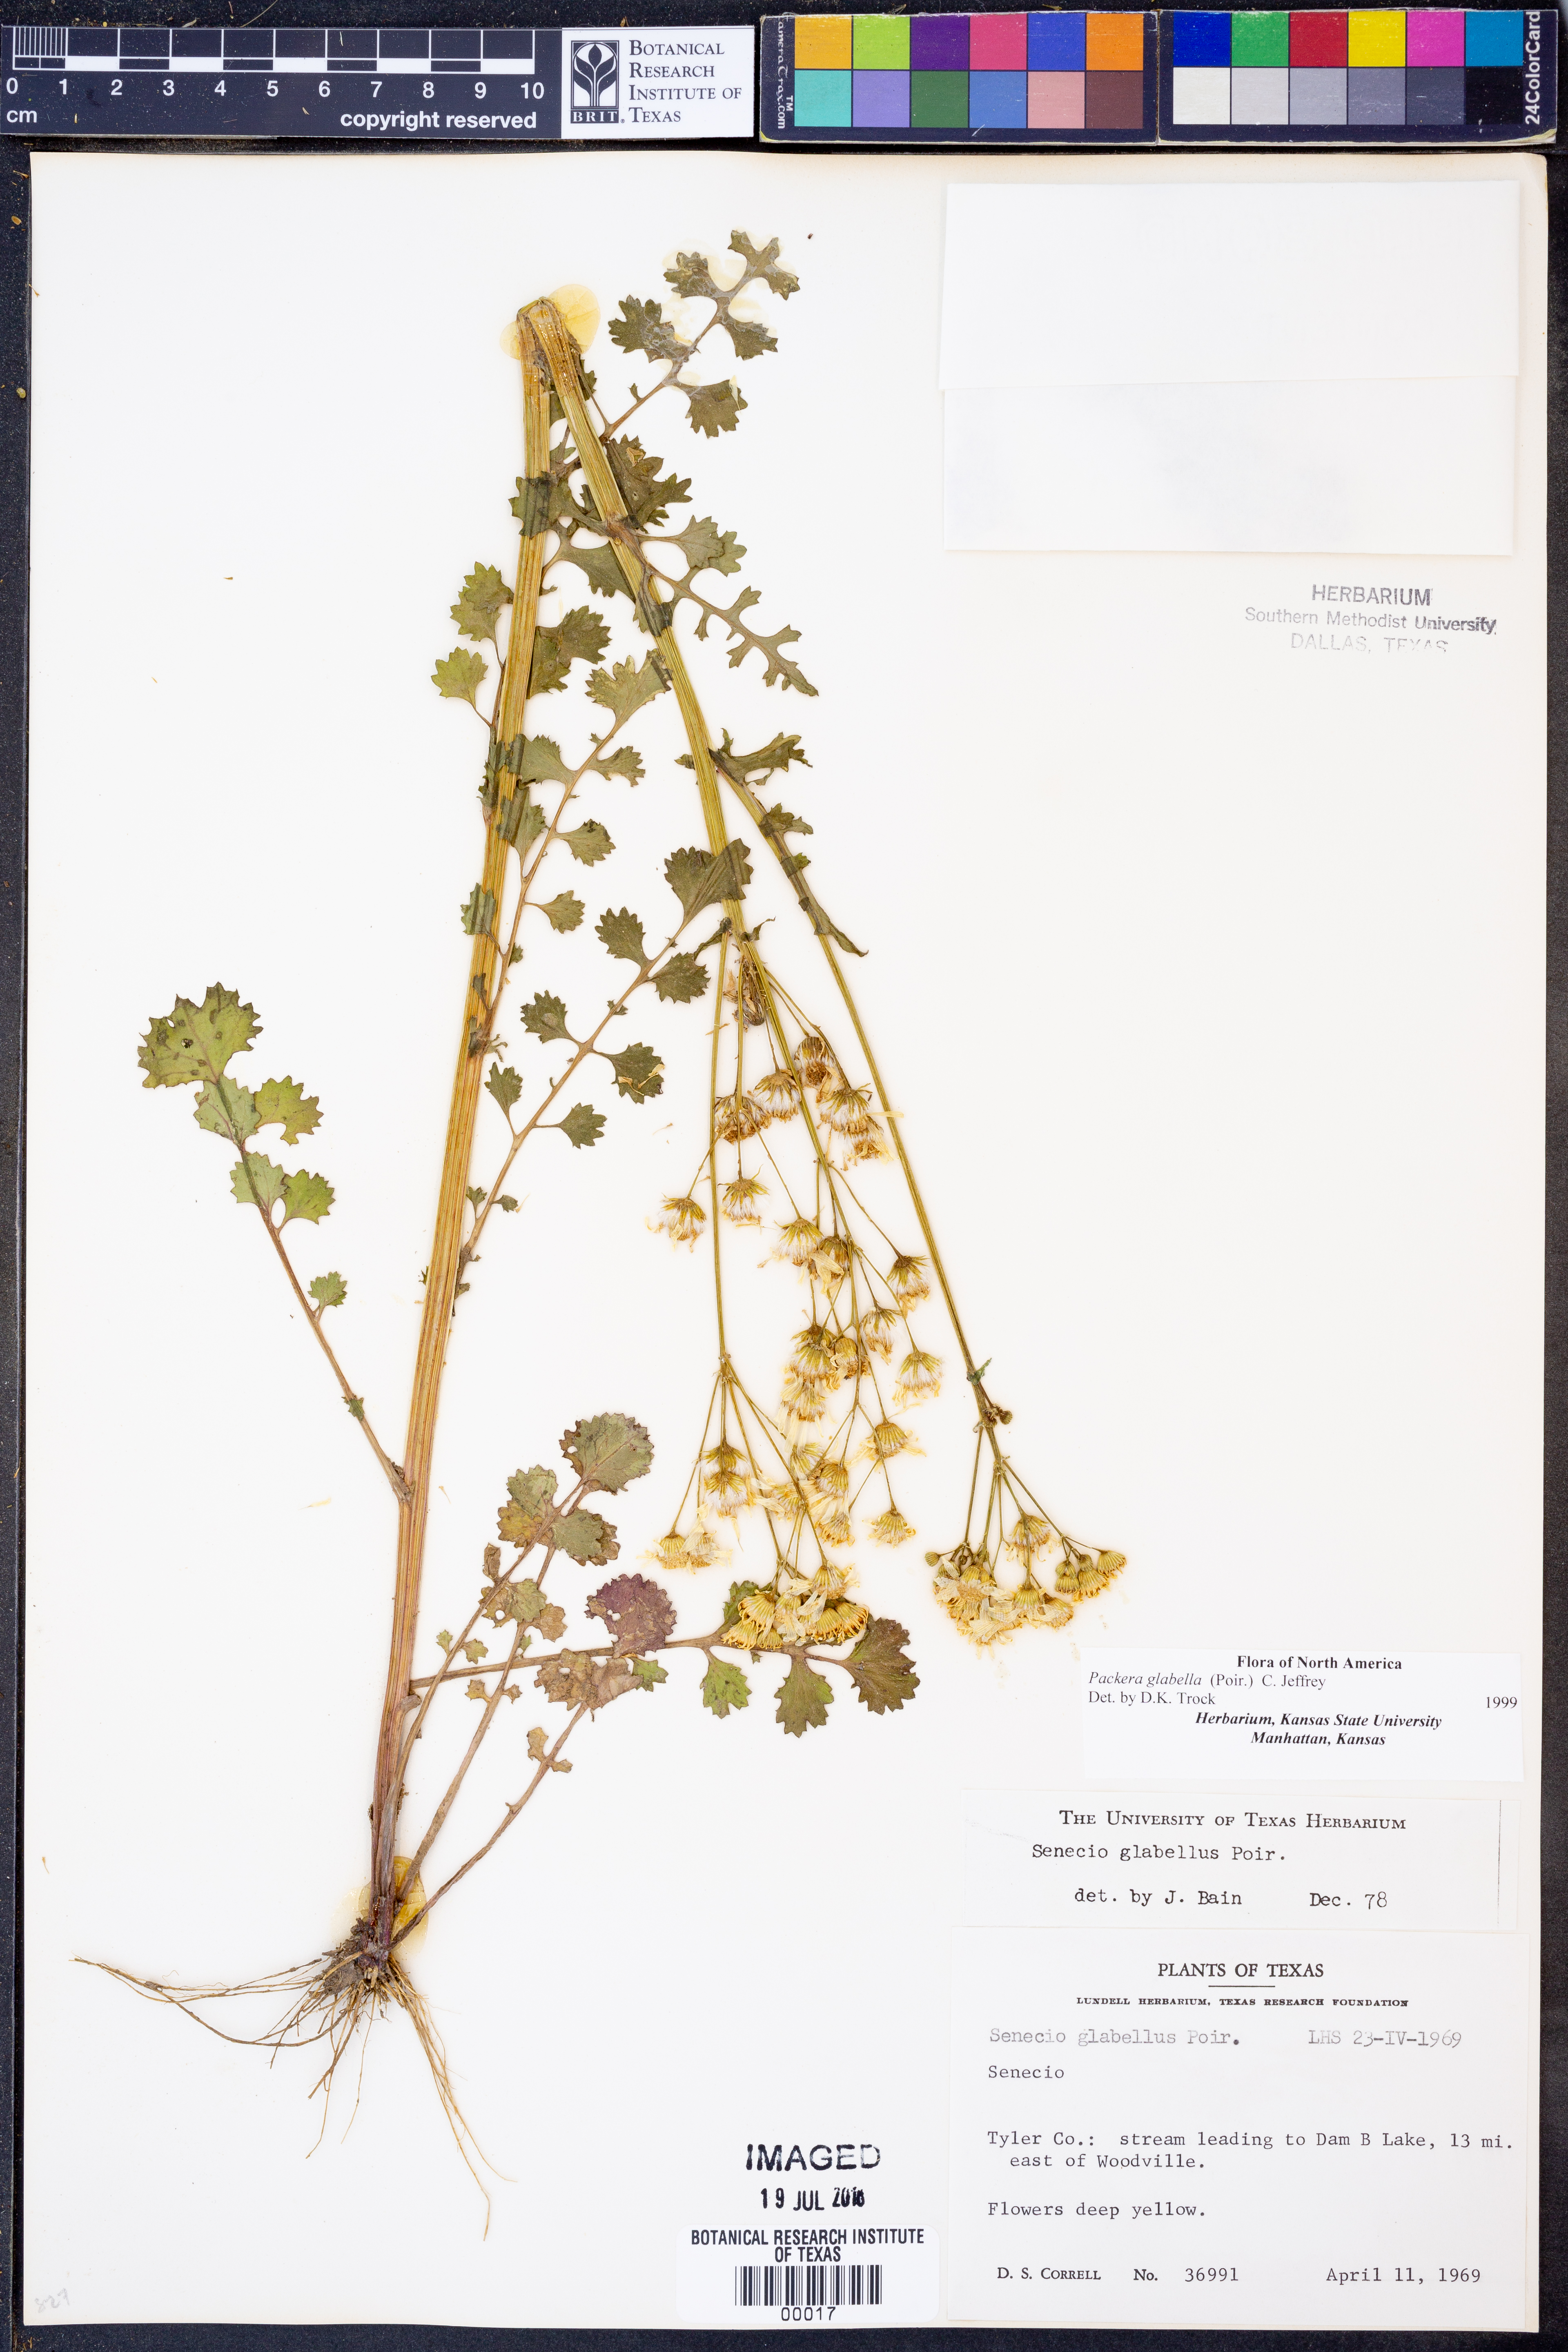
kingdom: Plantae
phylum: Tracheophyta
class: Magnoliopsida
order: Asterales
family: Asteraceae
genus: Packera
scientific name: Packera glabella
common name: Butterweed
